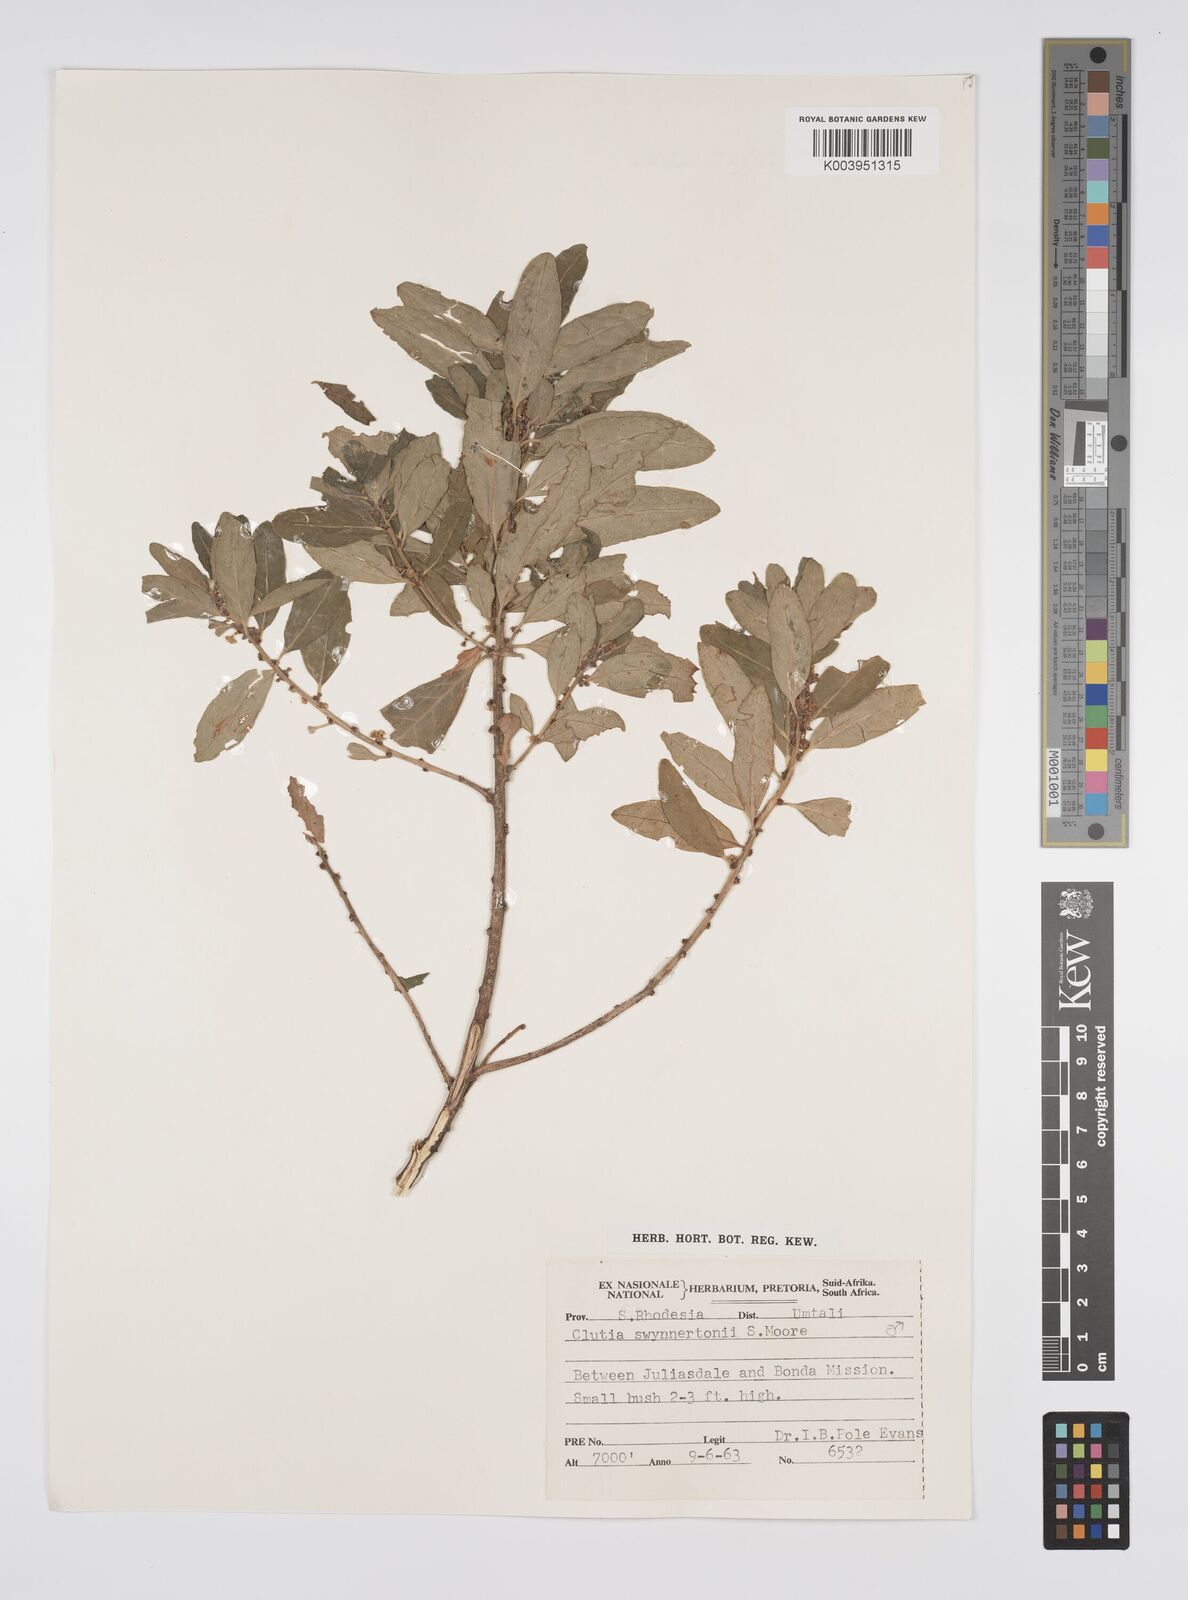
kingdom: Plantae
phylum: Tracheophyta
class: Magnoliopsida
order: Malpighiales
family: Peraceae
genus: Clutia
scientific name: Clutia swynnertonii
